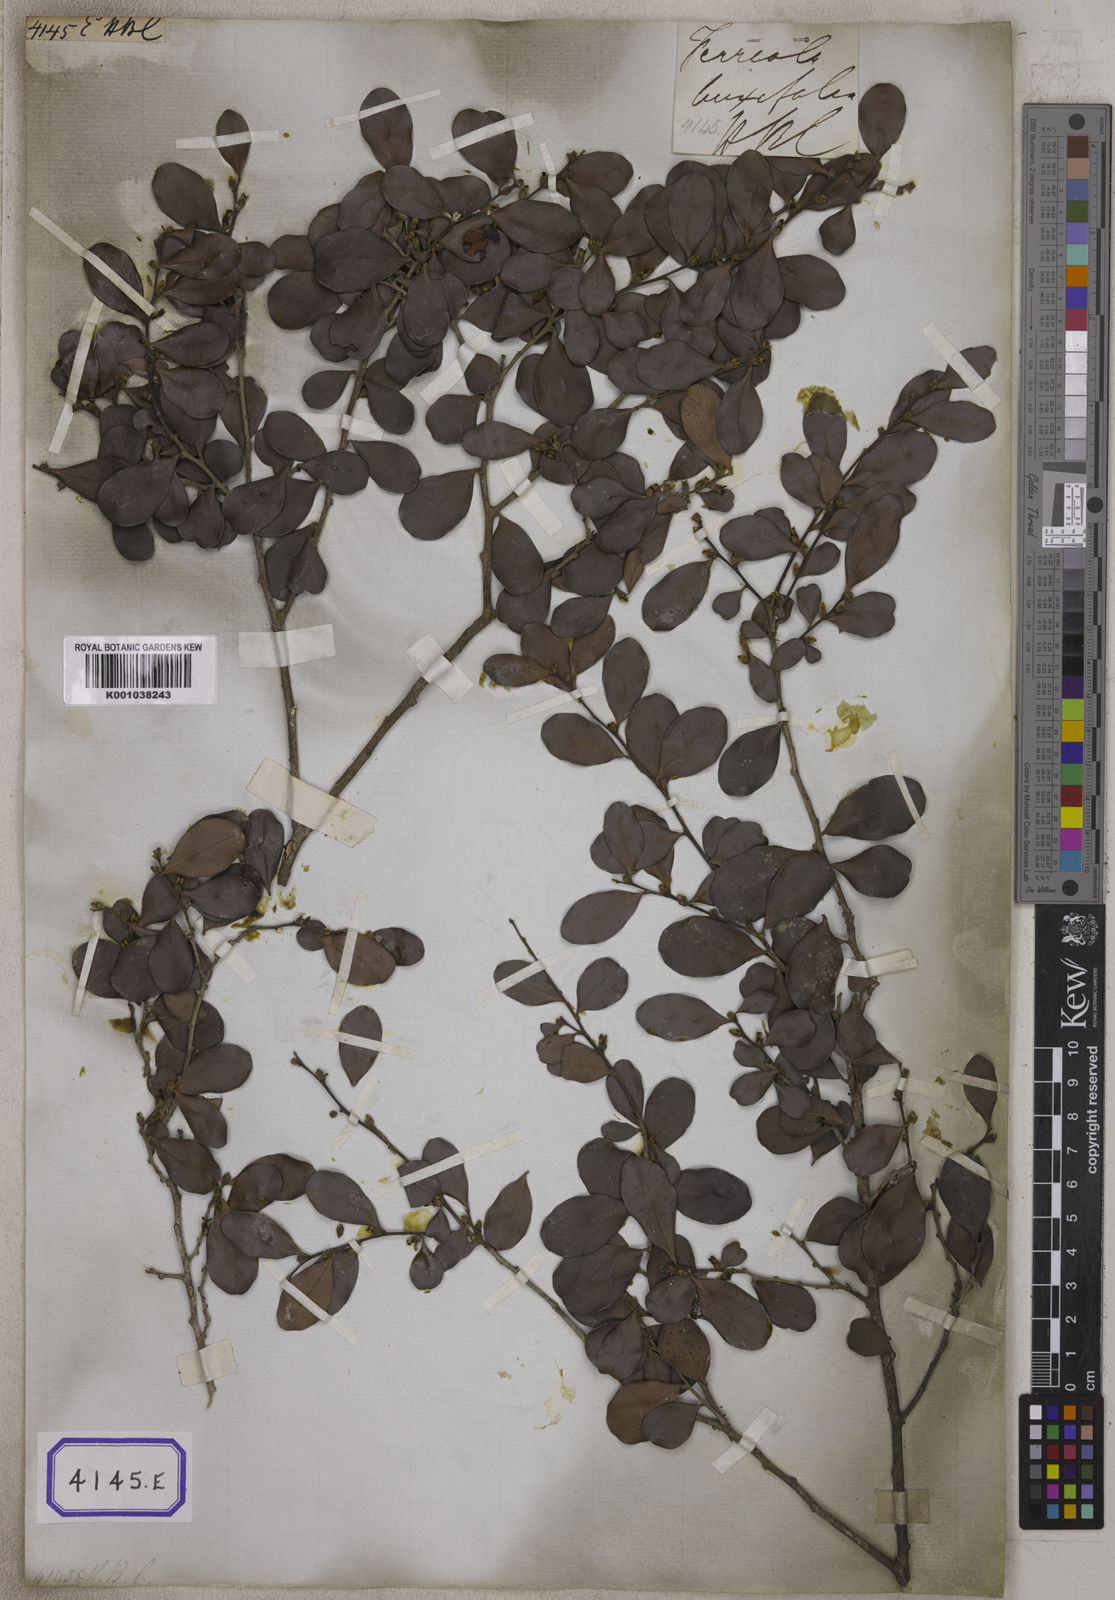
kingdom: Plantae
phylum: Tracheophyta
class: Magnoliopsida
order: Ericales
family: Ebenaceae
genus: Diospyros
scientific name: Diospyros ferrea
